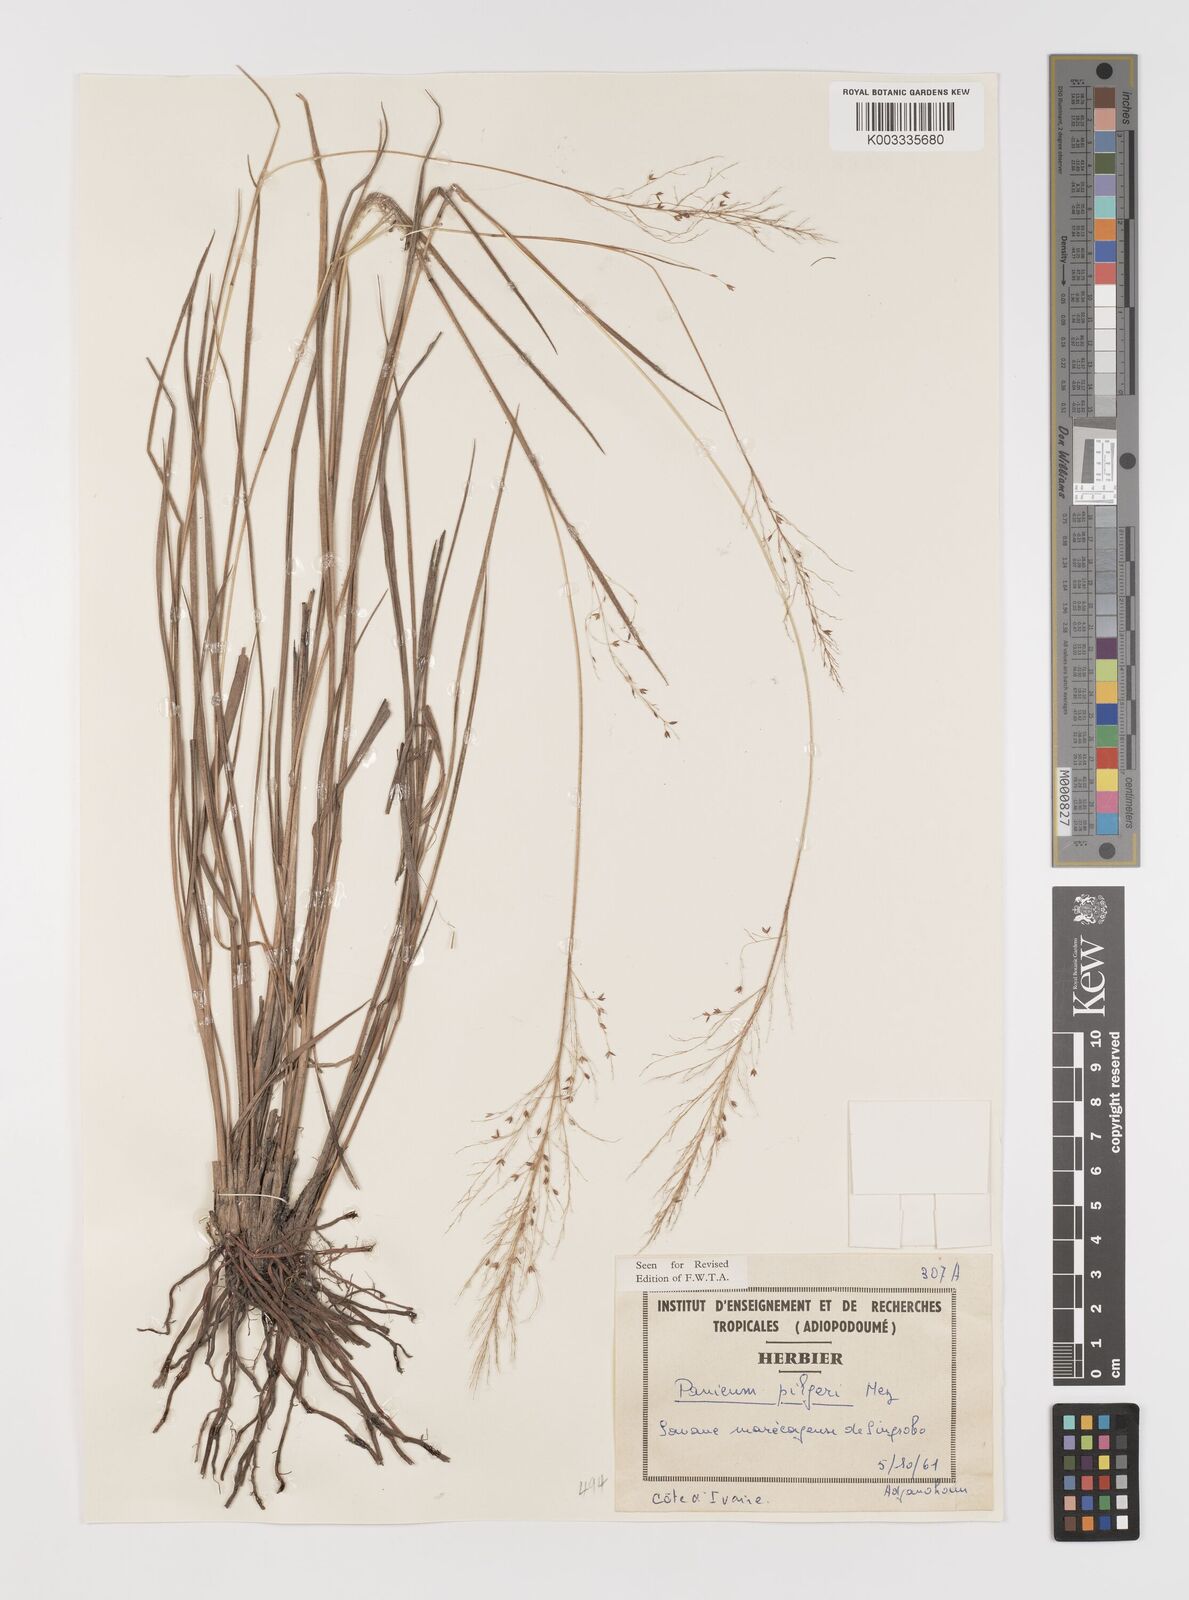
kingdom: Plantae
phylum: Tracheophyta
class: Liliopsida
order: Poales
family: Poaceae
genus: Panicum
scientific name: Panicum
